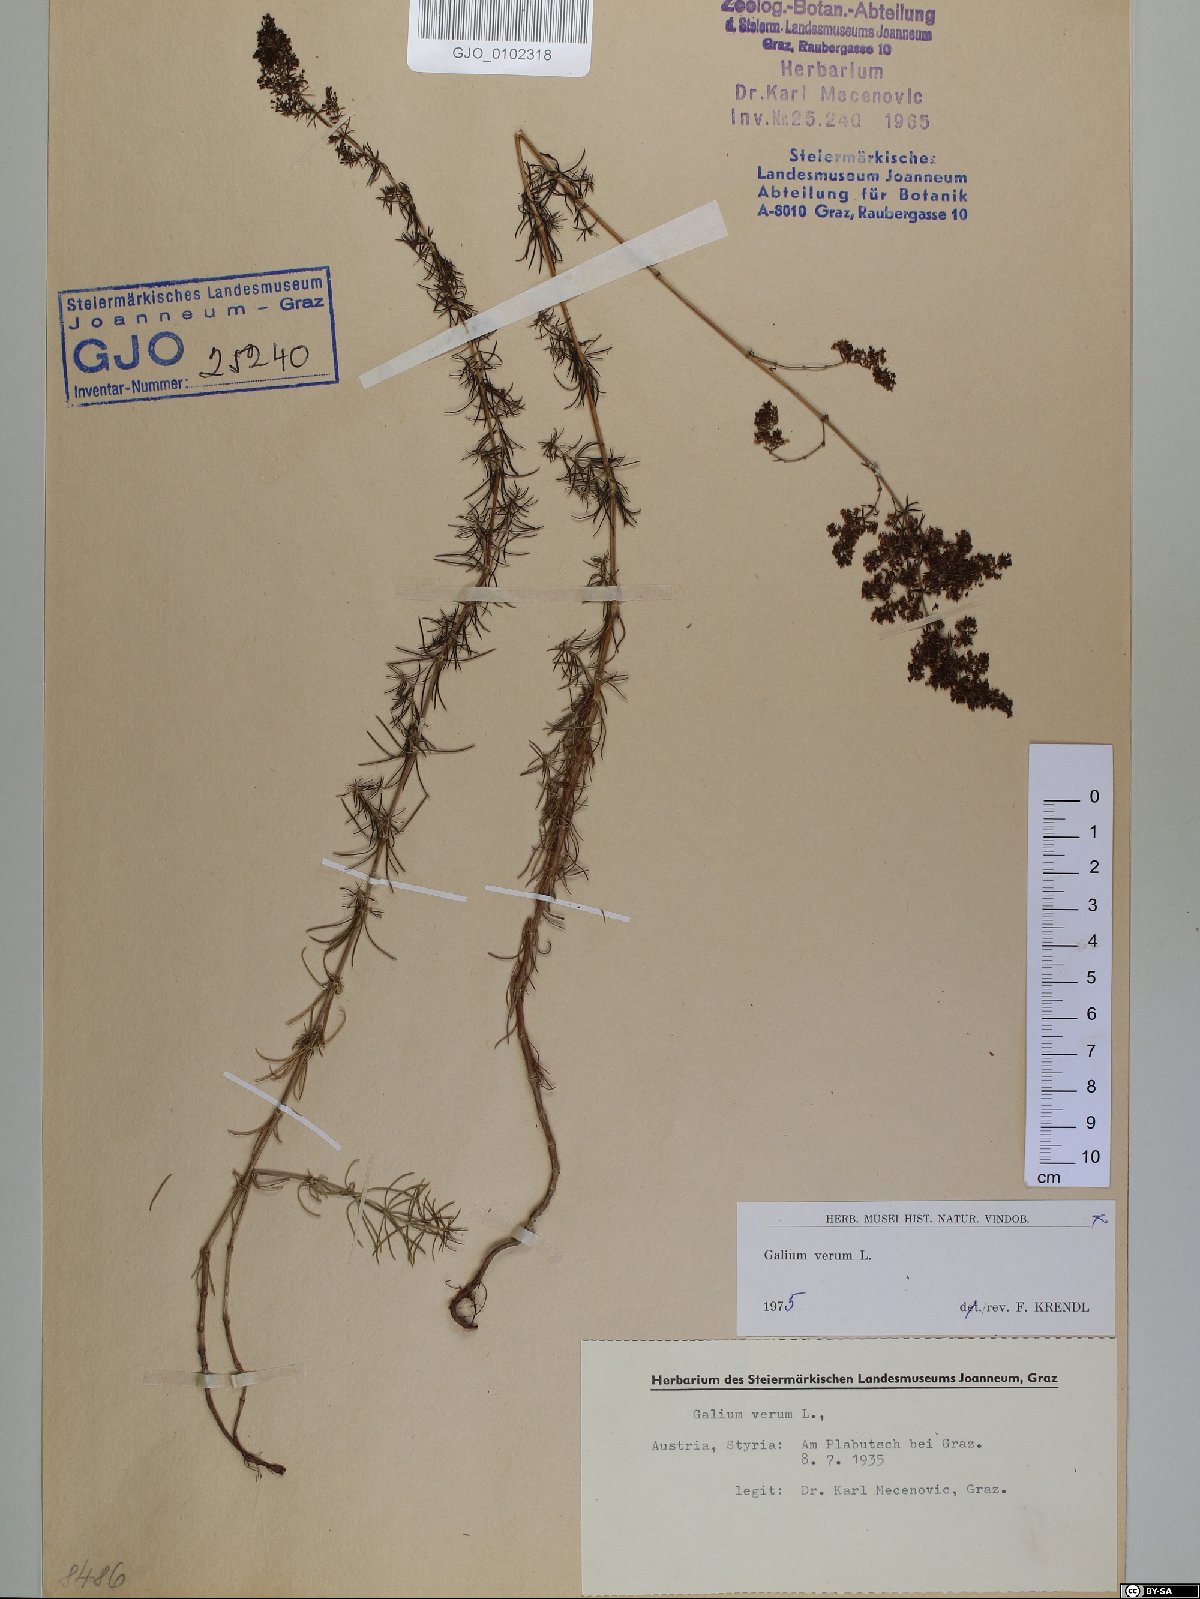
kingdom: Plantae
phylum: Tracheophyta
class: Magnoliopsida
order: Gentianales
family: Rubiaceae
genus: Galium
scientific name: Galium verum
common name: Lady's bedstraw
